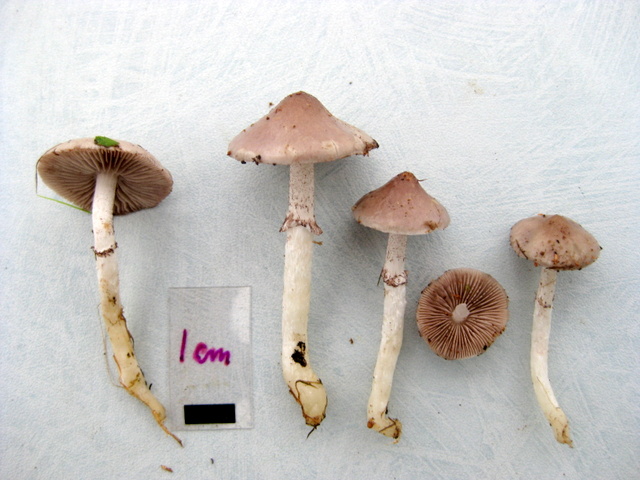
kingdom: Fungi
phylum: Basidiomycota
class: Agaricomycetes
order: Agaricales
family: Strophariaceae
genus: Stropharia
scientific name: Stropharia inuncta
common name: lillabrun bredblad
